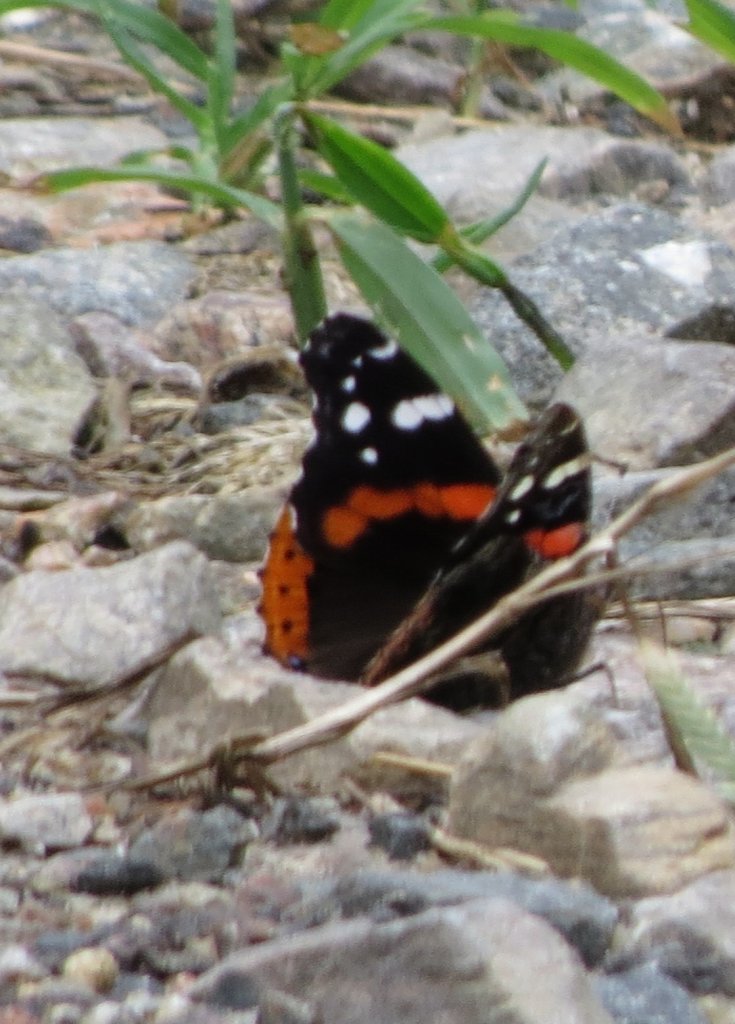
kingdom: Animalia
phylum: Arthropoda
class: Insecta
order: Lepidoptera
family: Nymphalidae
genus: Vanessa
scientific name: Vanessa atalanta
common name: Red Admiral
